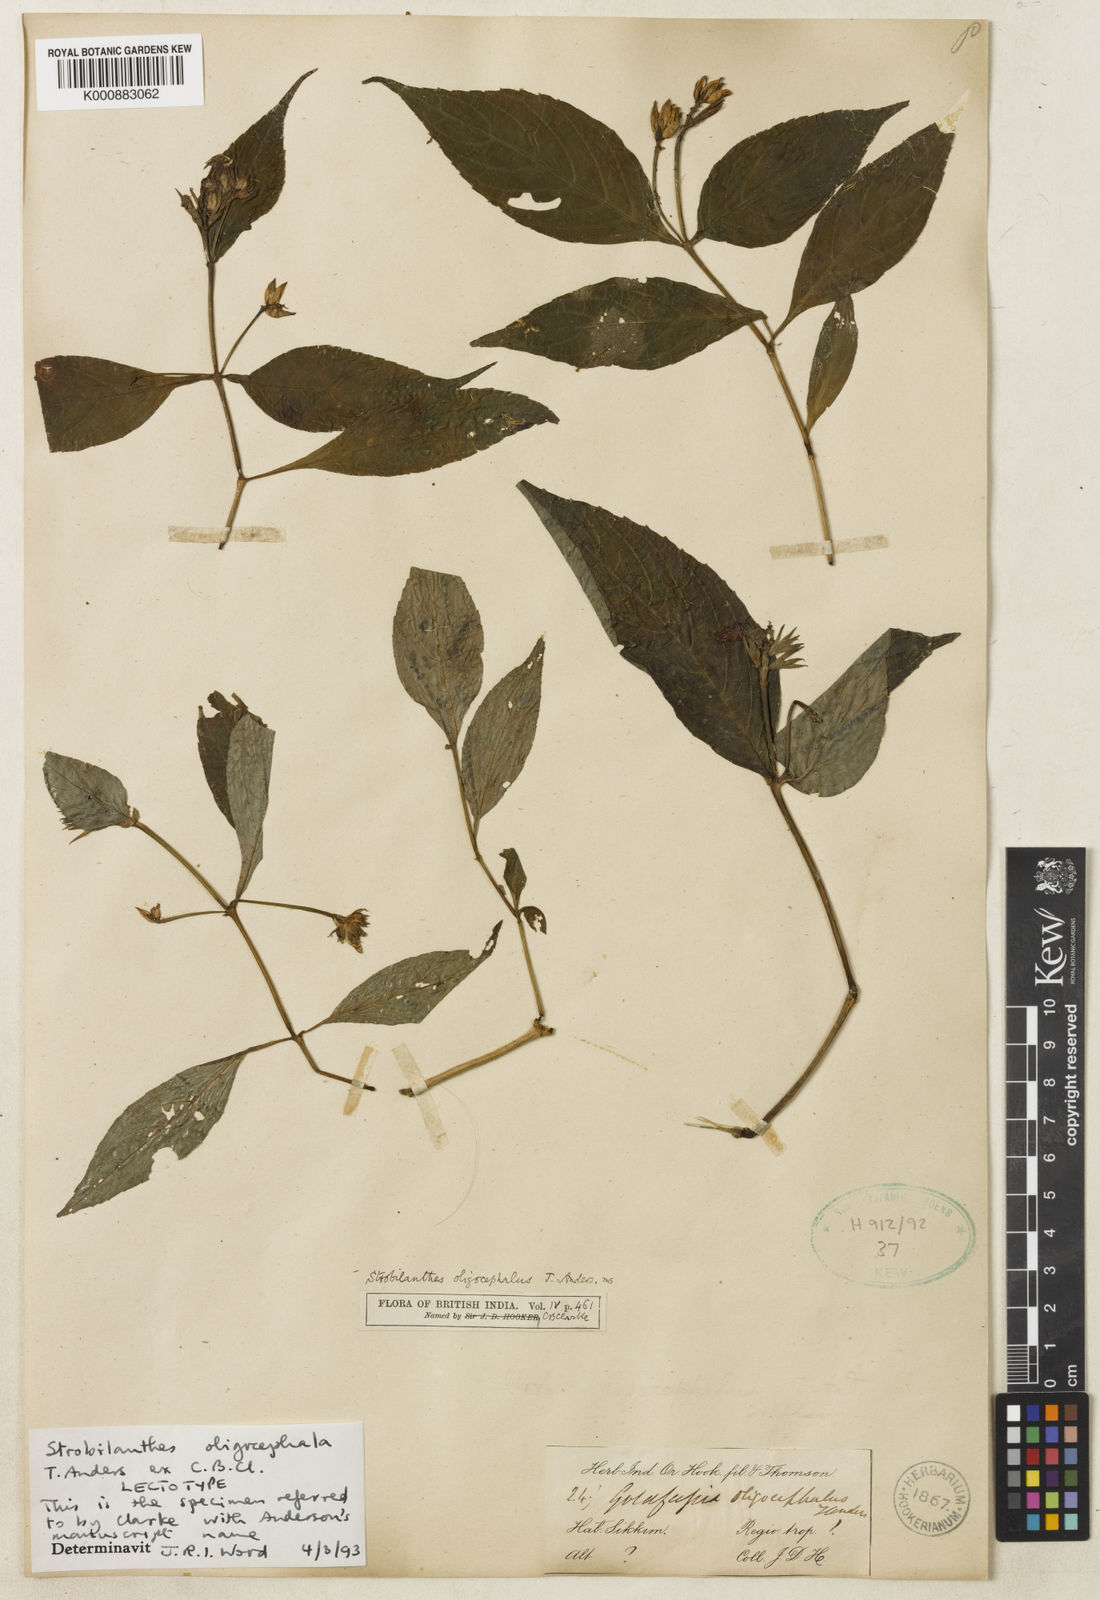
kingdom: Plantae
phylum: Tracheophyta
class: Magnoliopsida
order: Lamiales
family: Acanthaceae
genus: Strobilanthes
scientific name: Strobilanthes oligocephala
